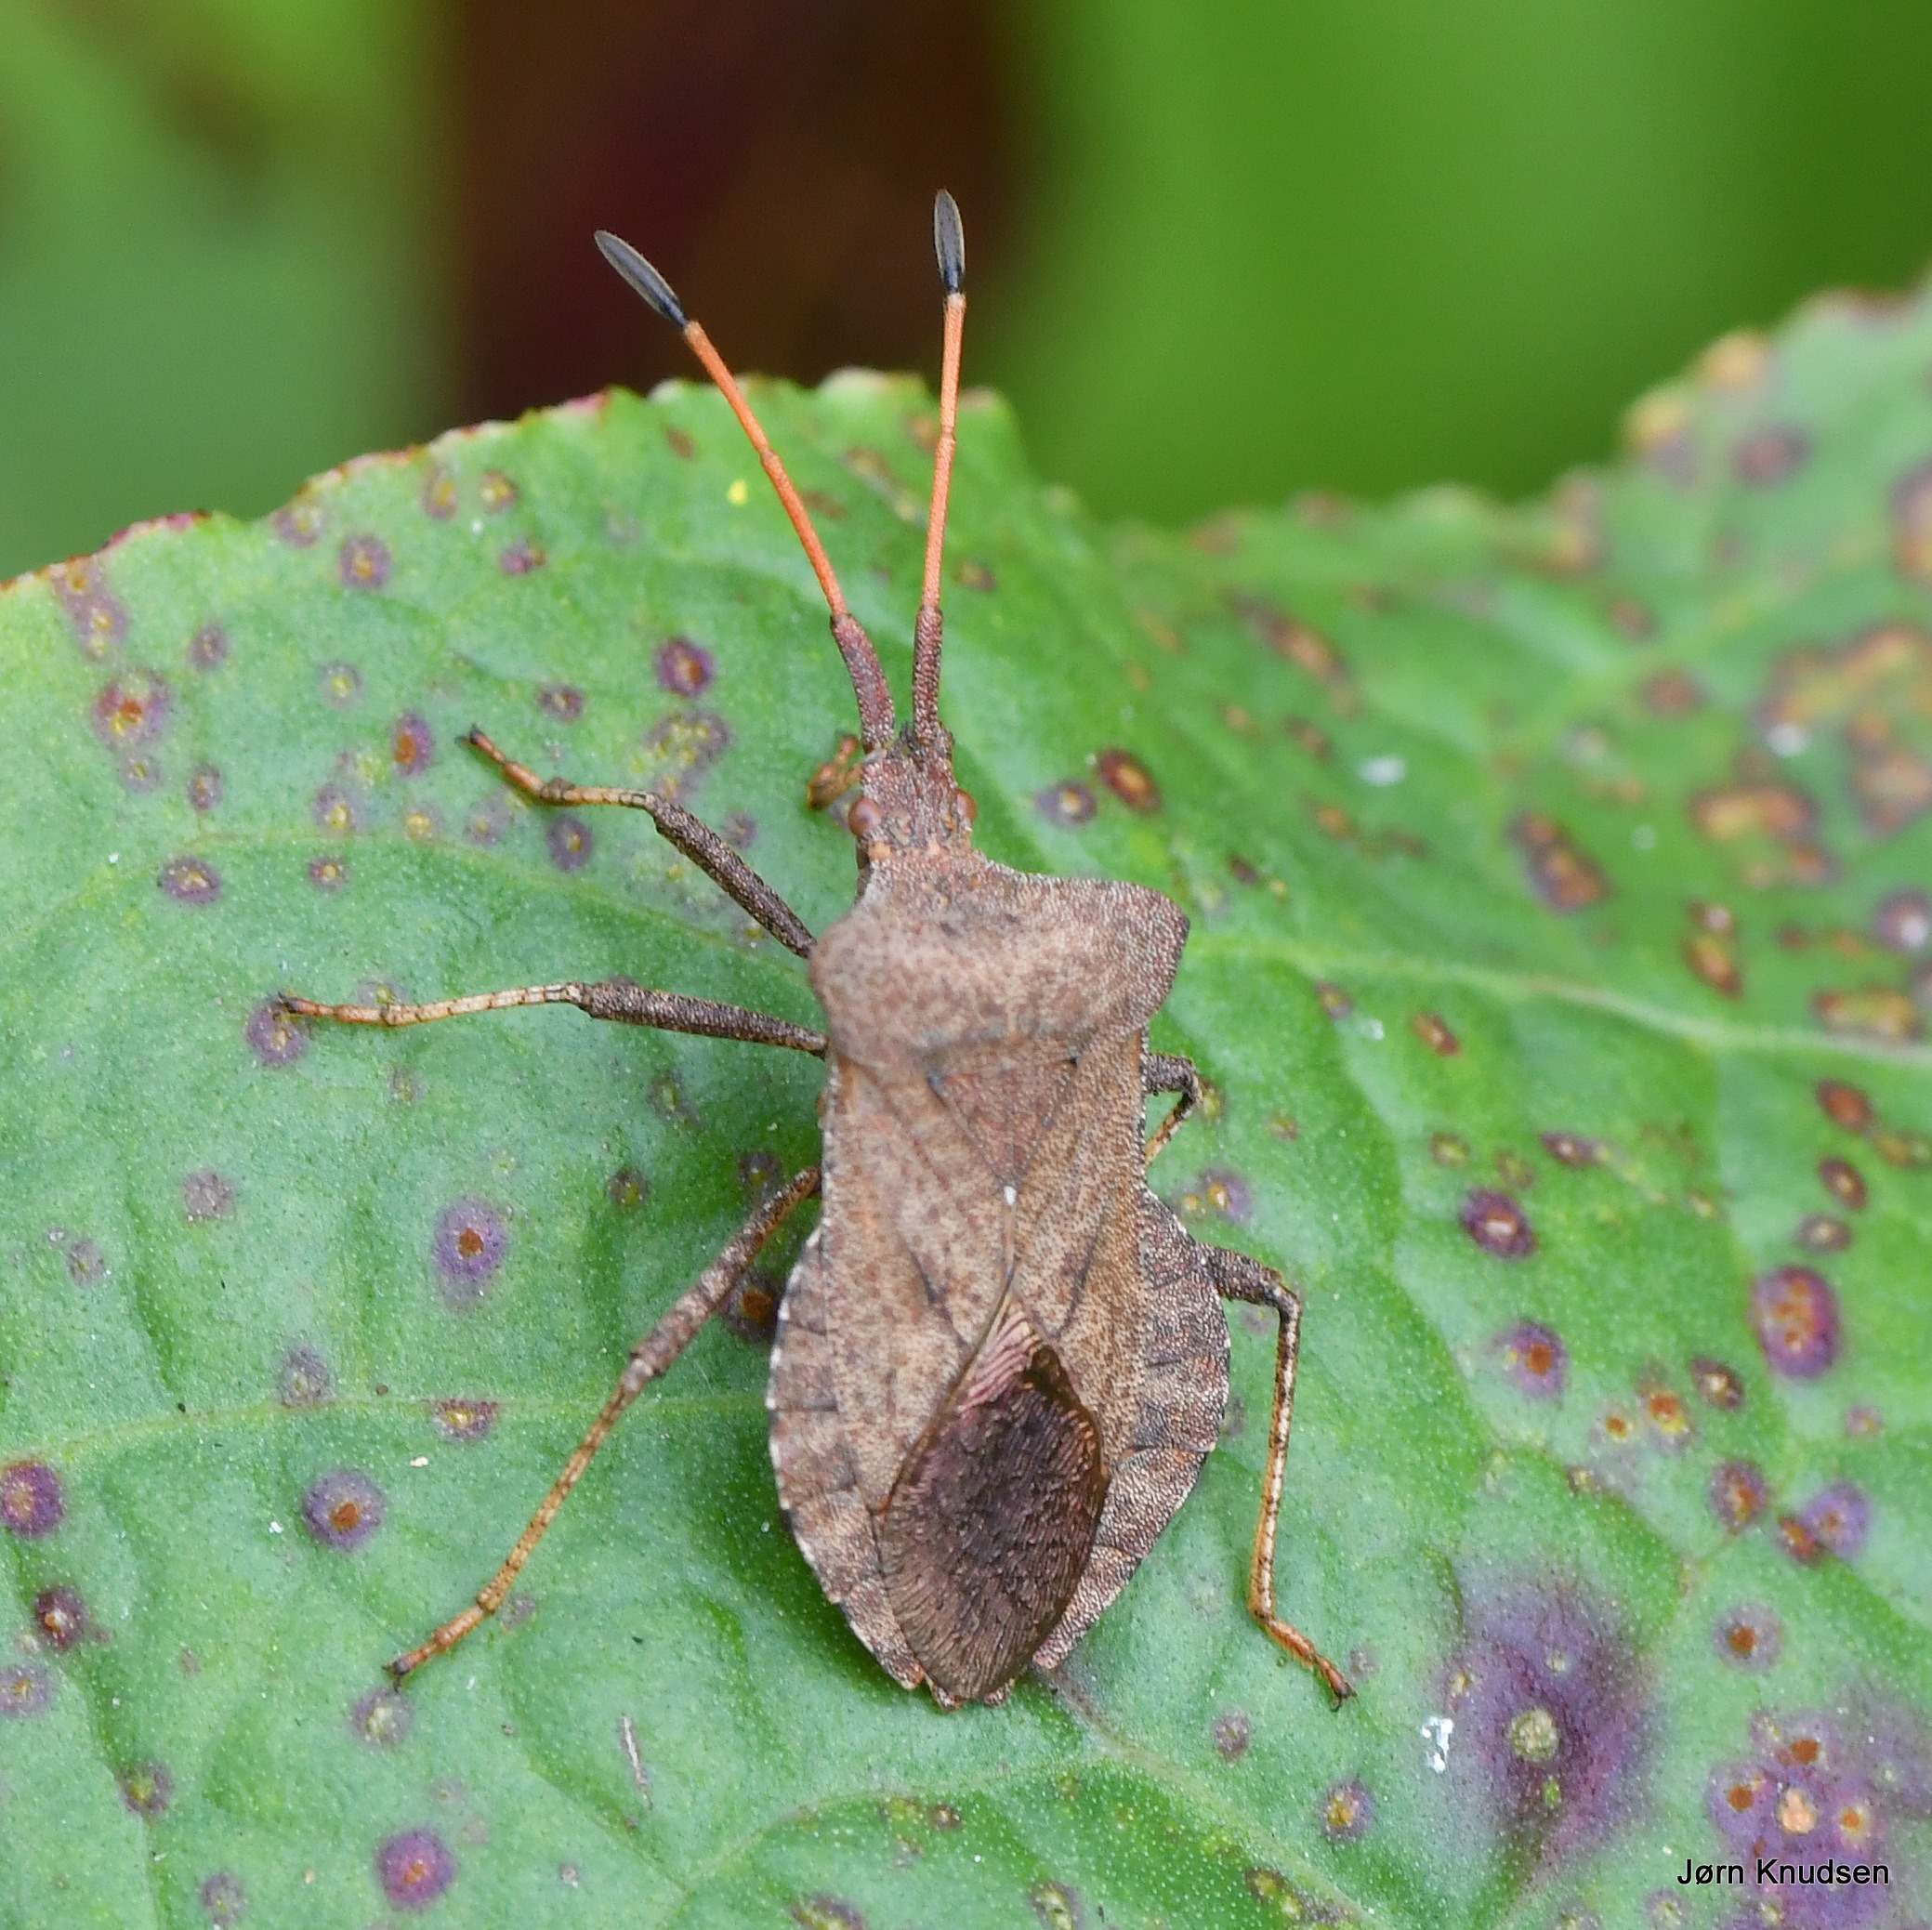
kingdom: Animalia
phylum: Arthropoda
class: Insecta
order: Hemiptera
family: Coreidae
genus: Coreus
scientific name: Coreus marginatus
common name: Skræppetæge
